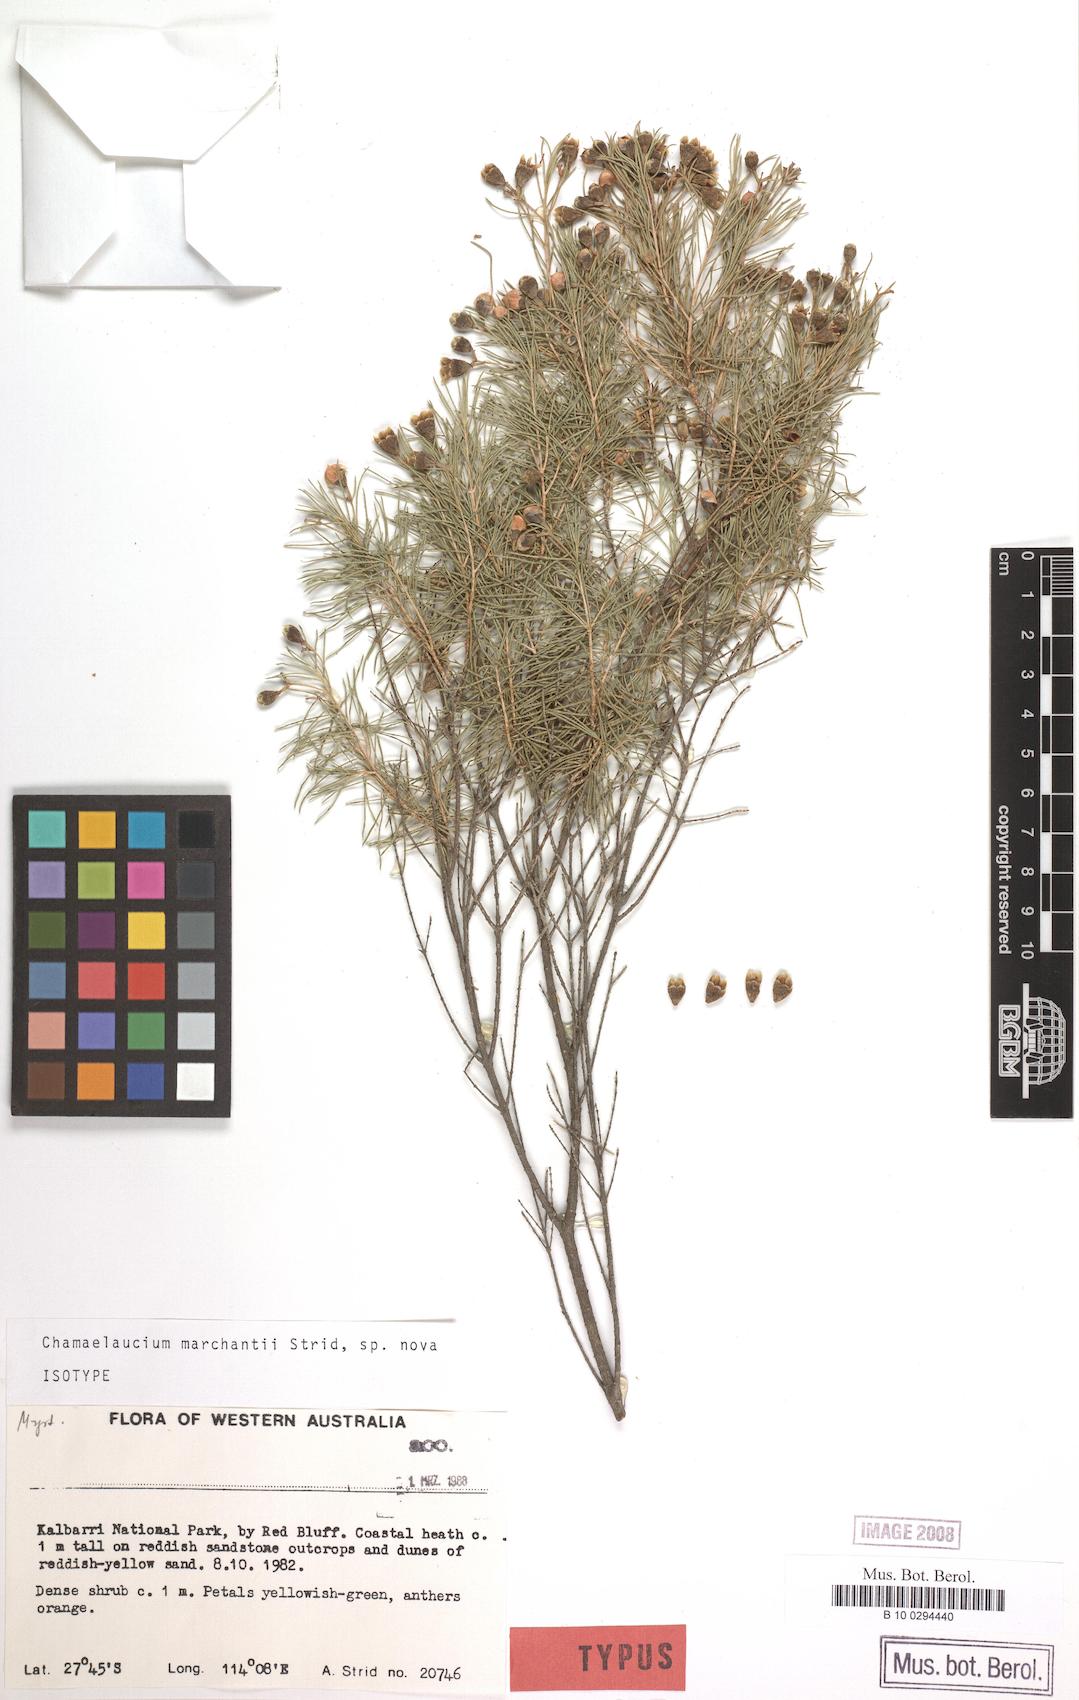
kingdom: Plantae
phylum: Tracheophyta
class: Magnoliopsida
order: Myrtales
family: Myrtaceae
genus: Chamelaucium
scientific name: Chamelaucium marchantii
